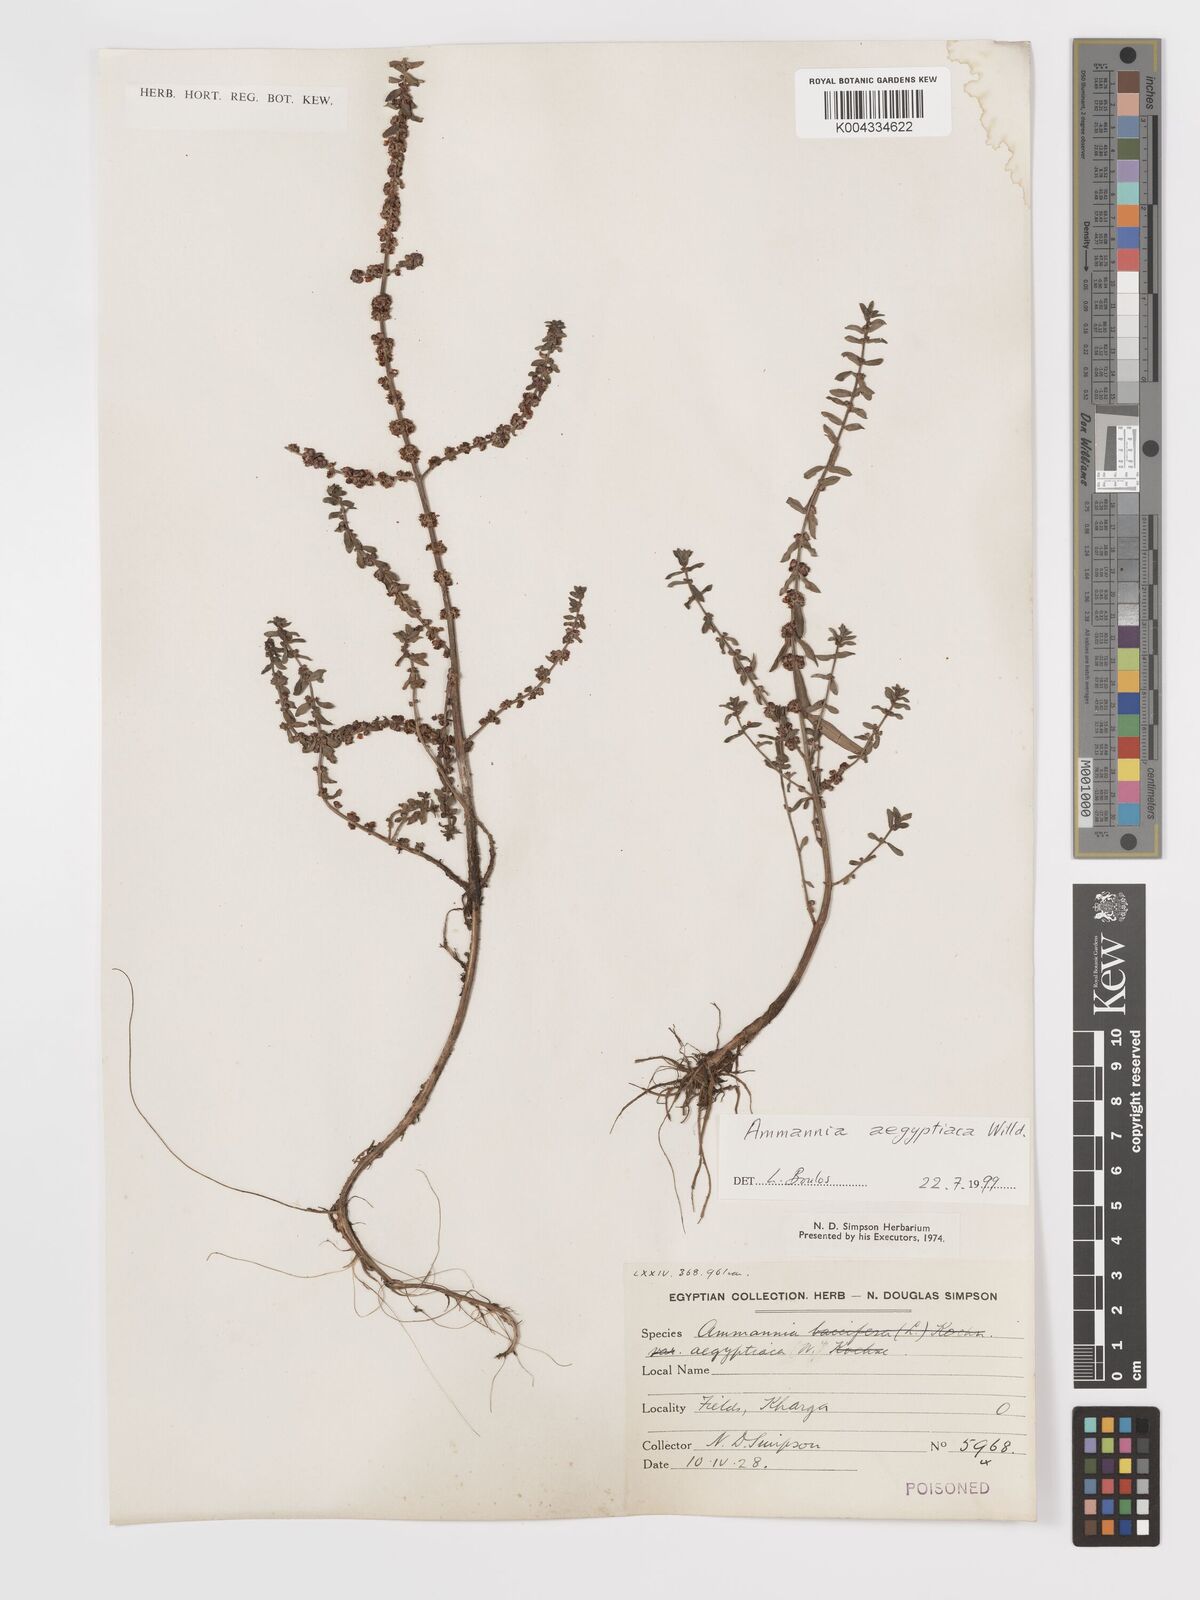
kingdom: Plantae
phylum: Tracheophyta
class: Magnoliopsida
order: Myrtales
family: Lythraceae
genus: Ammannia
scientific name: Ammannia
